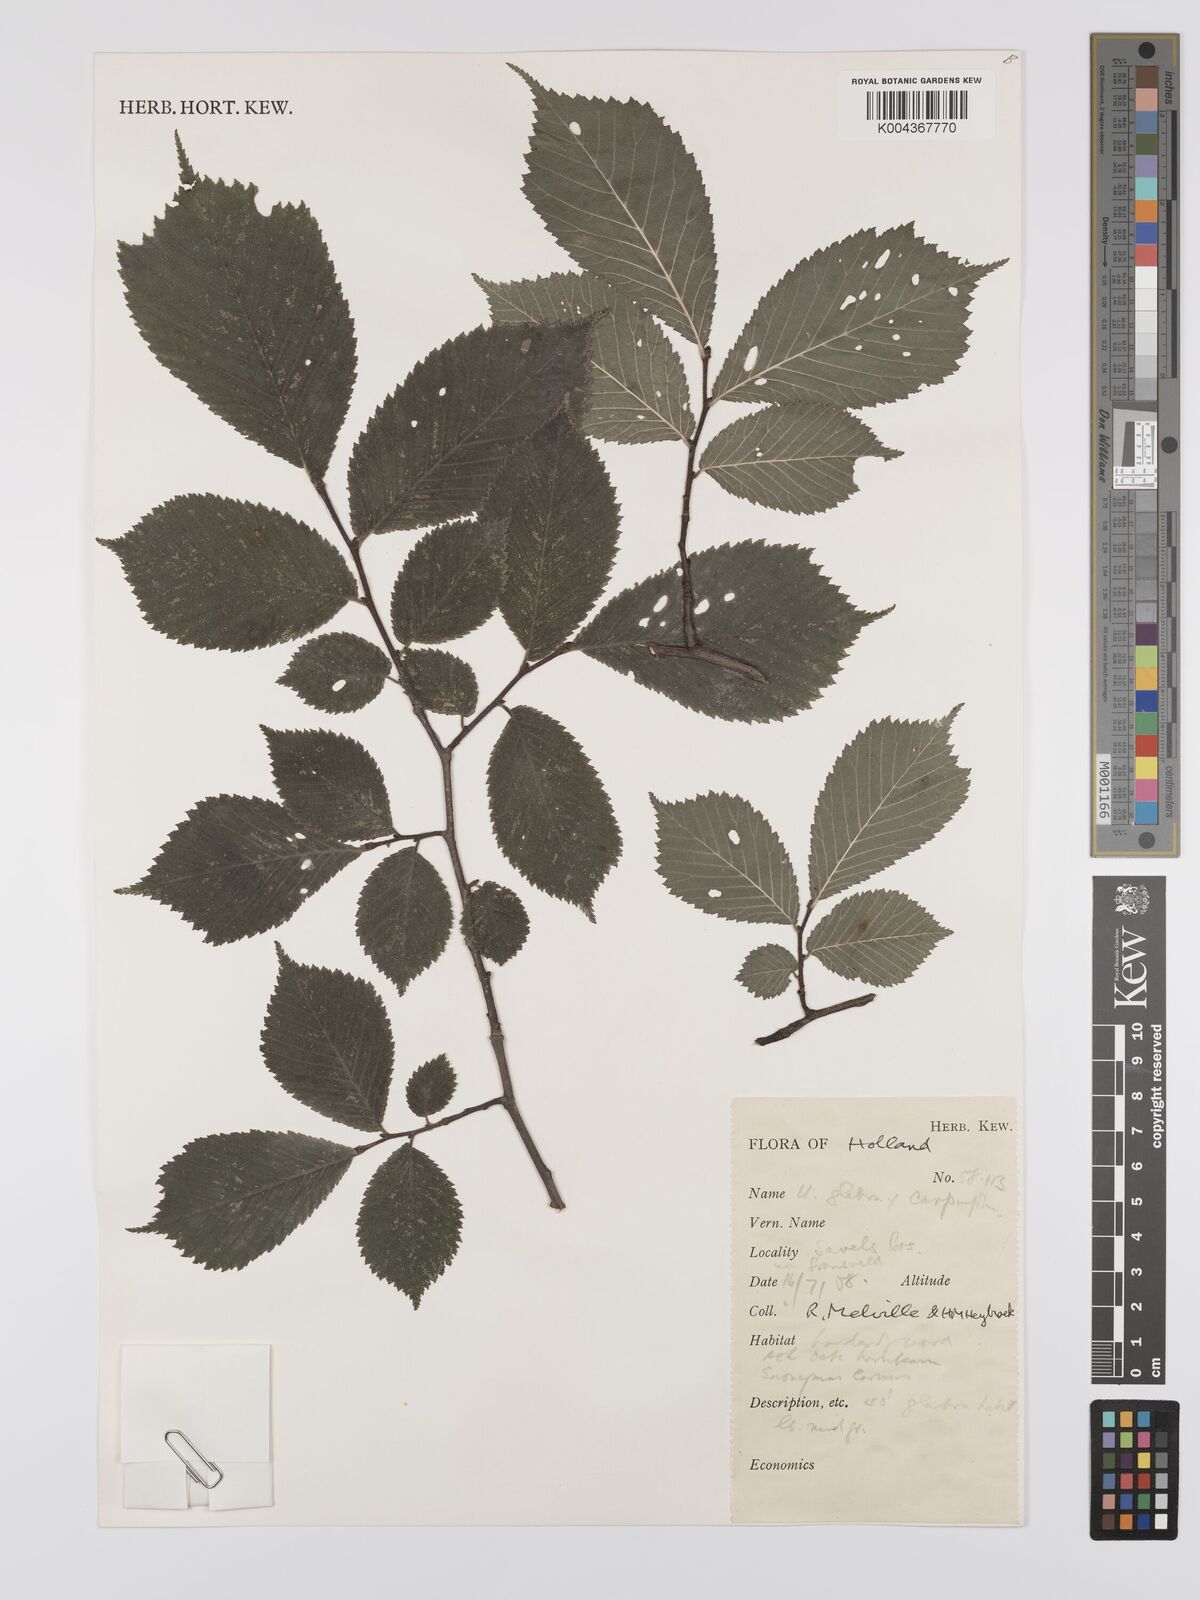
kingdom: Plantae
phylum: Tracheophyta
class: Magnoliopsida
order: Rosales
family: Ulmaceae
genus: Ulmus
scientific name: Ulmus
